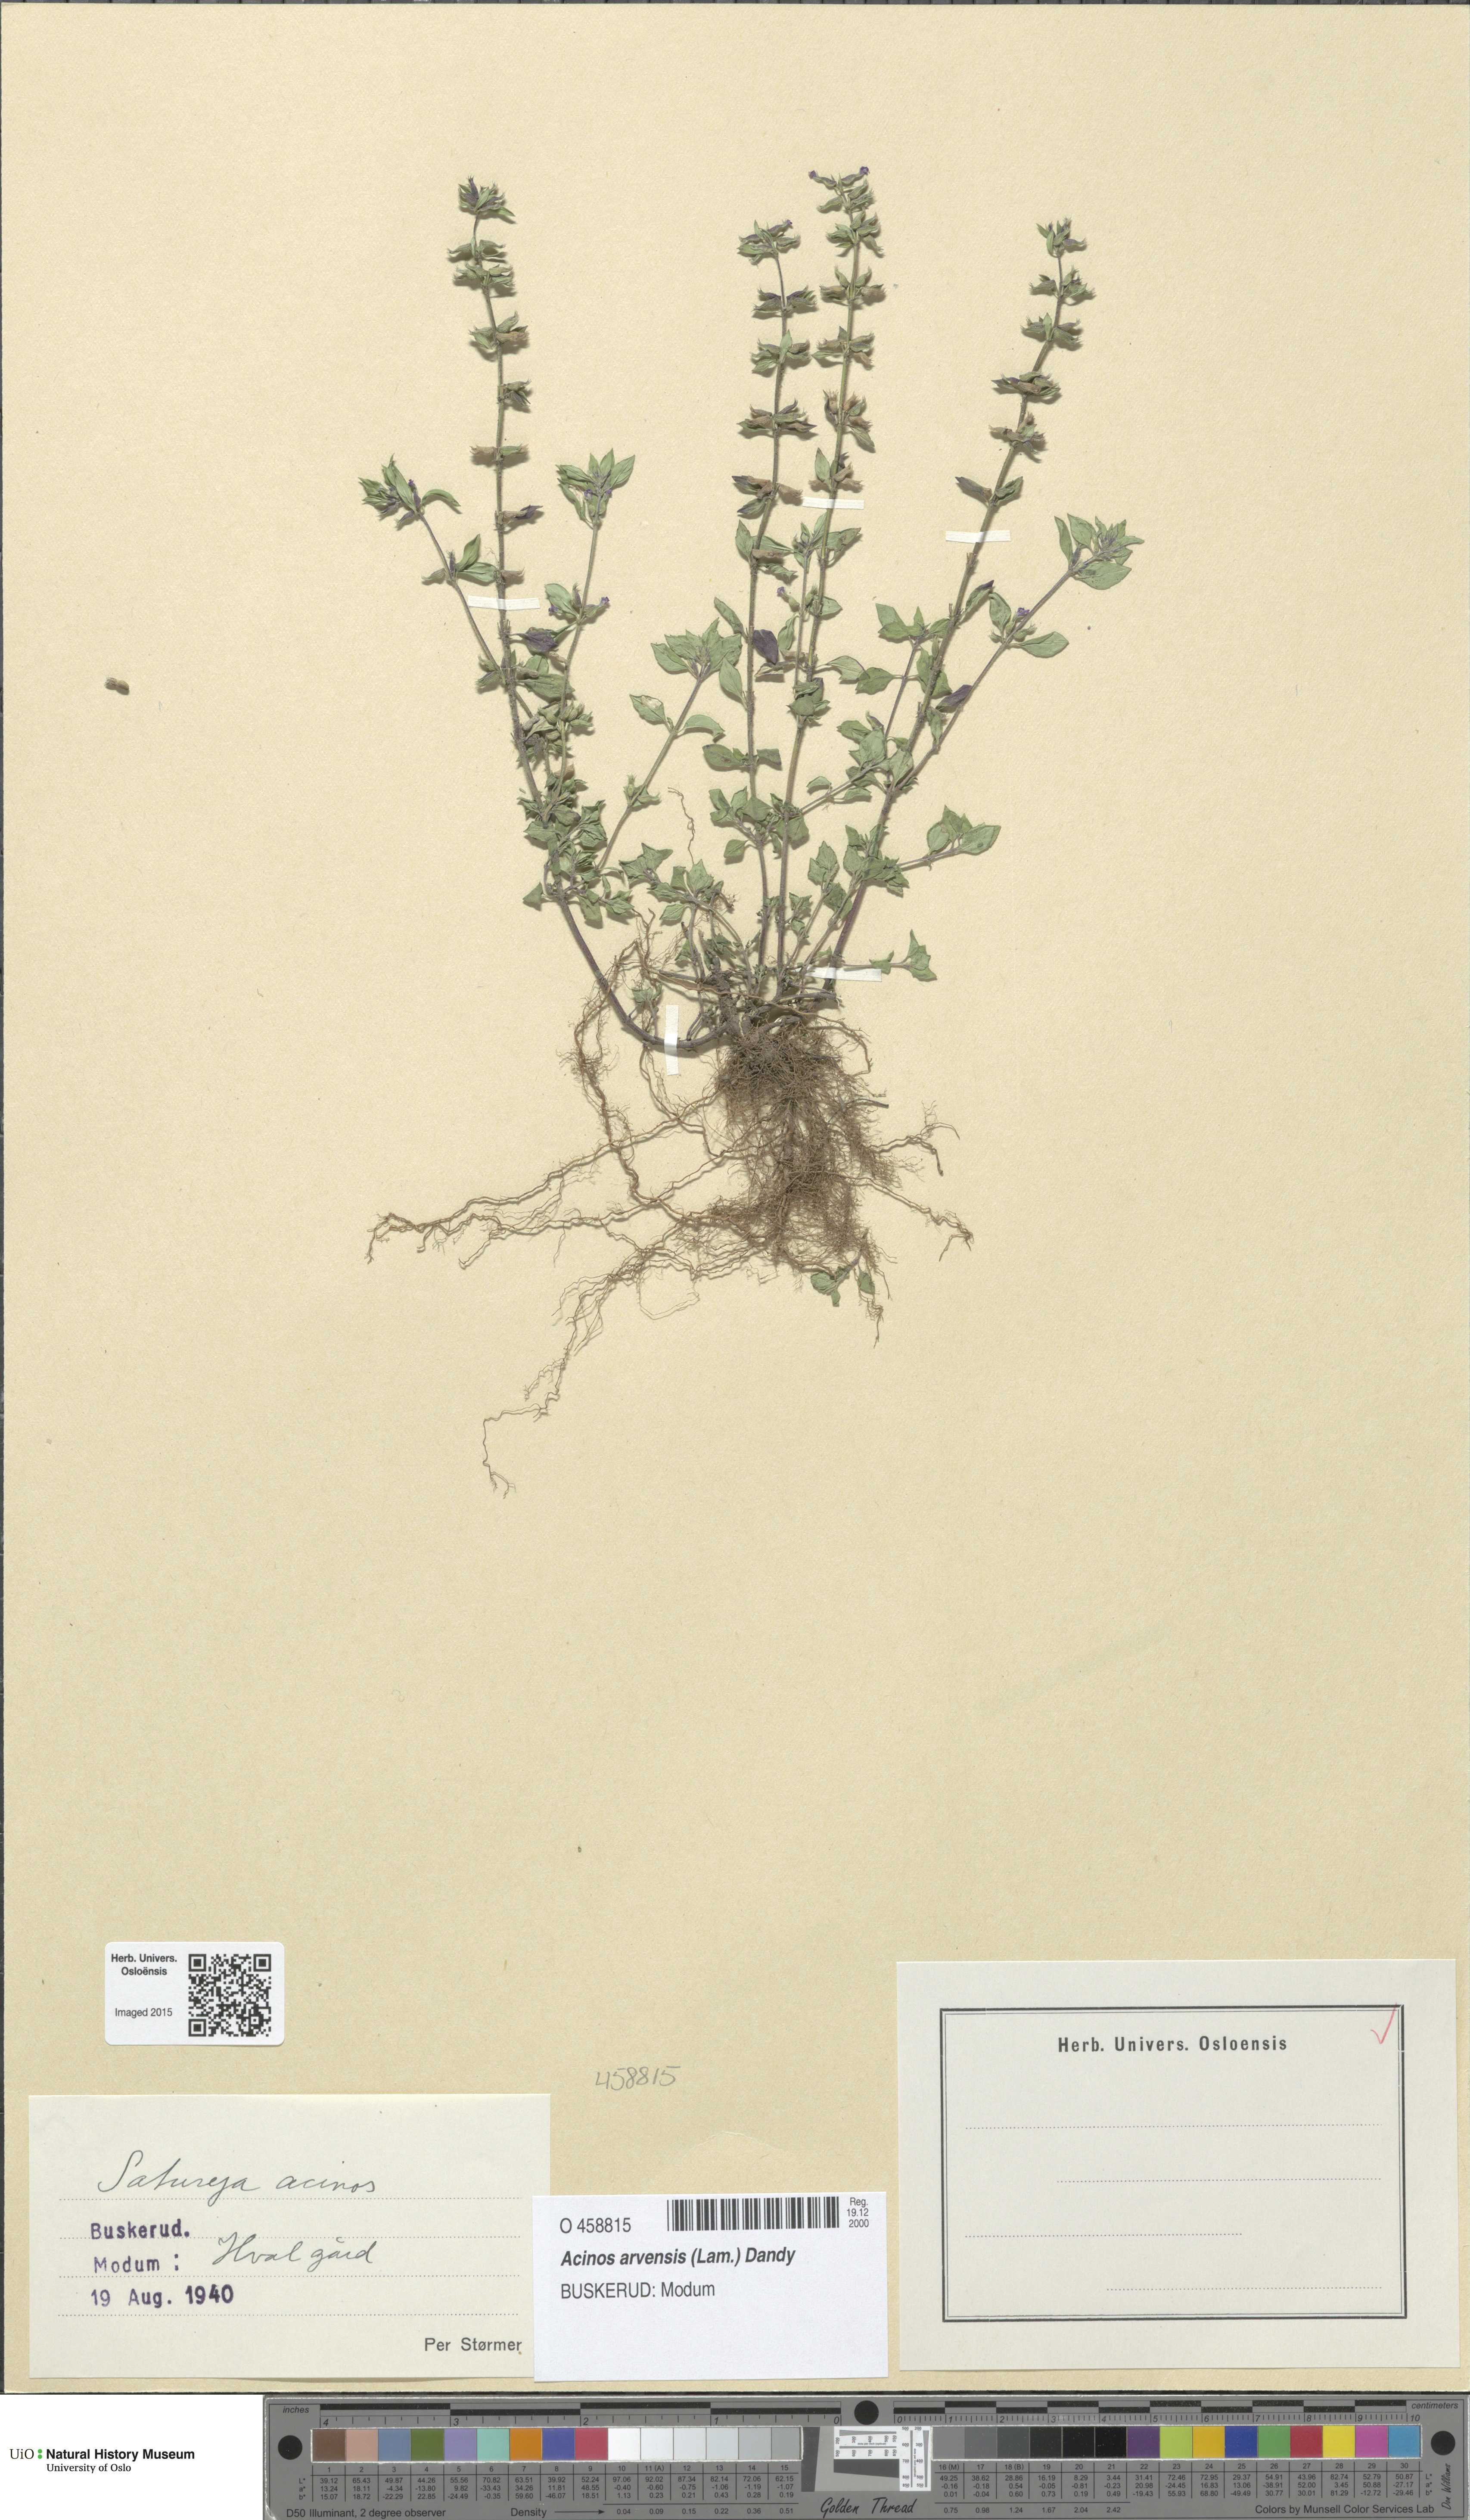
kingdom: Plantae
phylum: Tracheophyta
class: Magnoliopsida
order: Lamiales
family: Lamiaceae
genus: Clinopodium
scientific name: Clinopodium acinos
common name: Basil thyme
